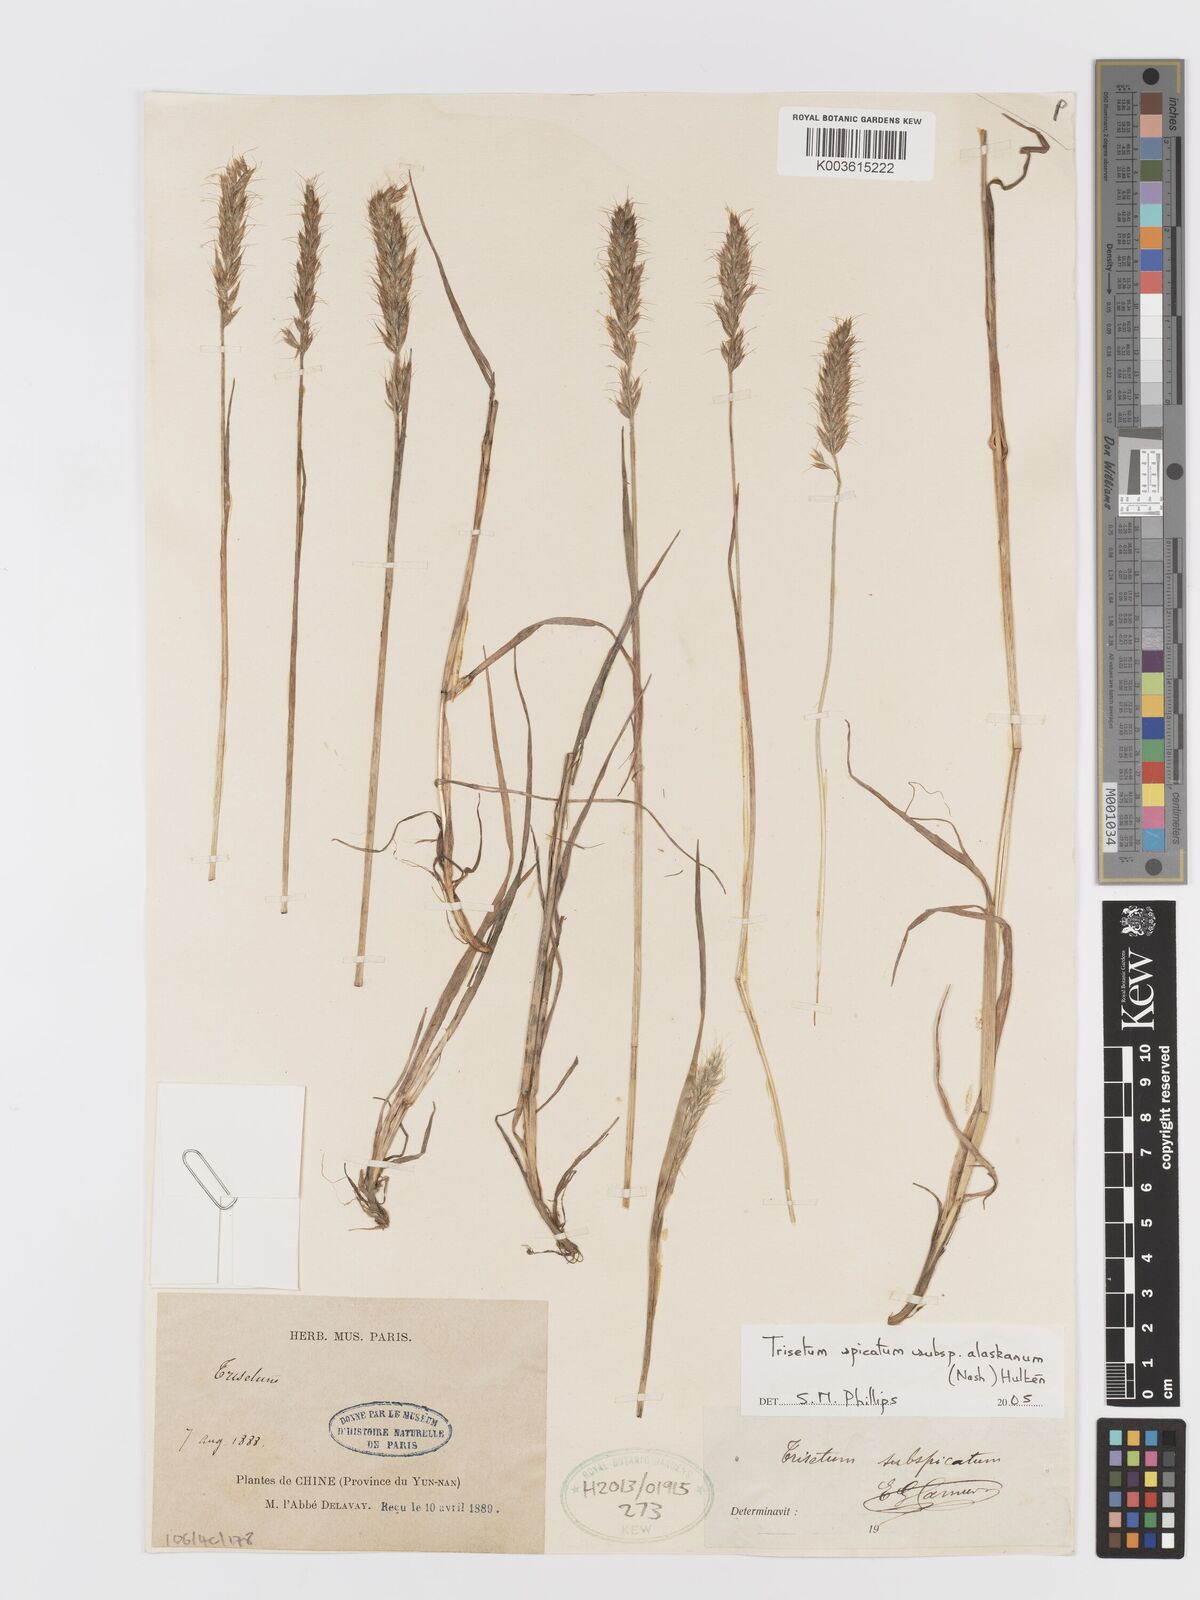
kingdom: Plantae
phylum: Tracheophyta
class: Liliopsida
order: Poales
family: Poaceae
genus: Koeleria
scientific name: Koeleria spicata
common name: Mountain trisetum
